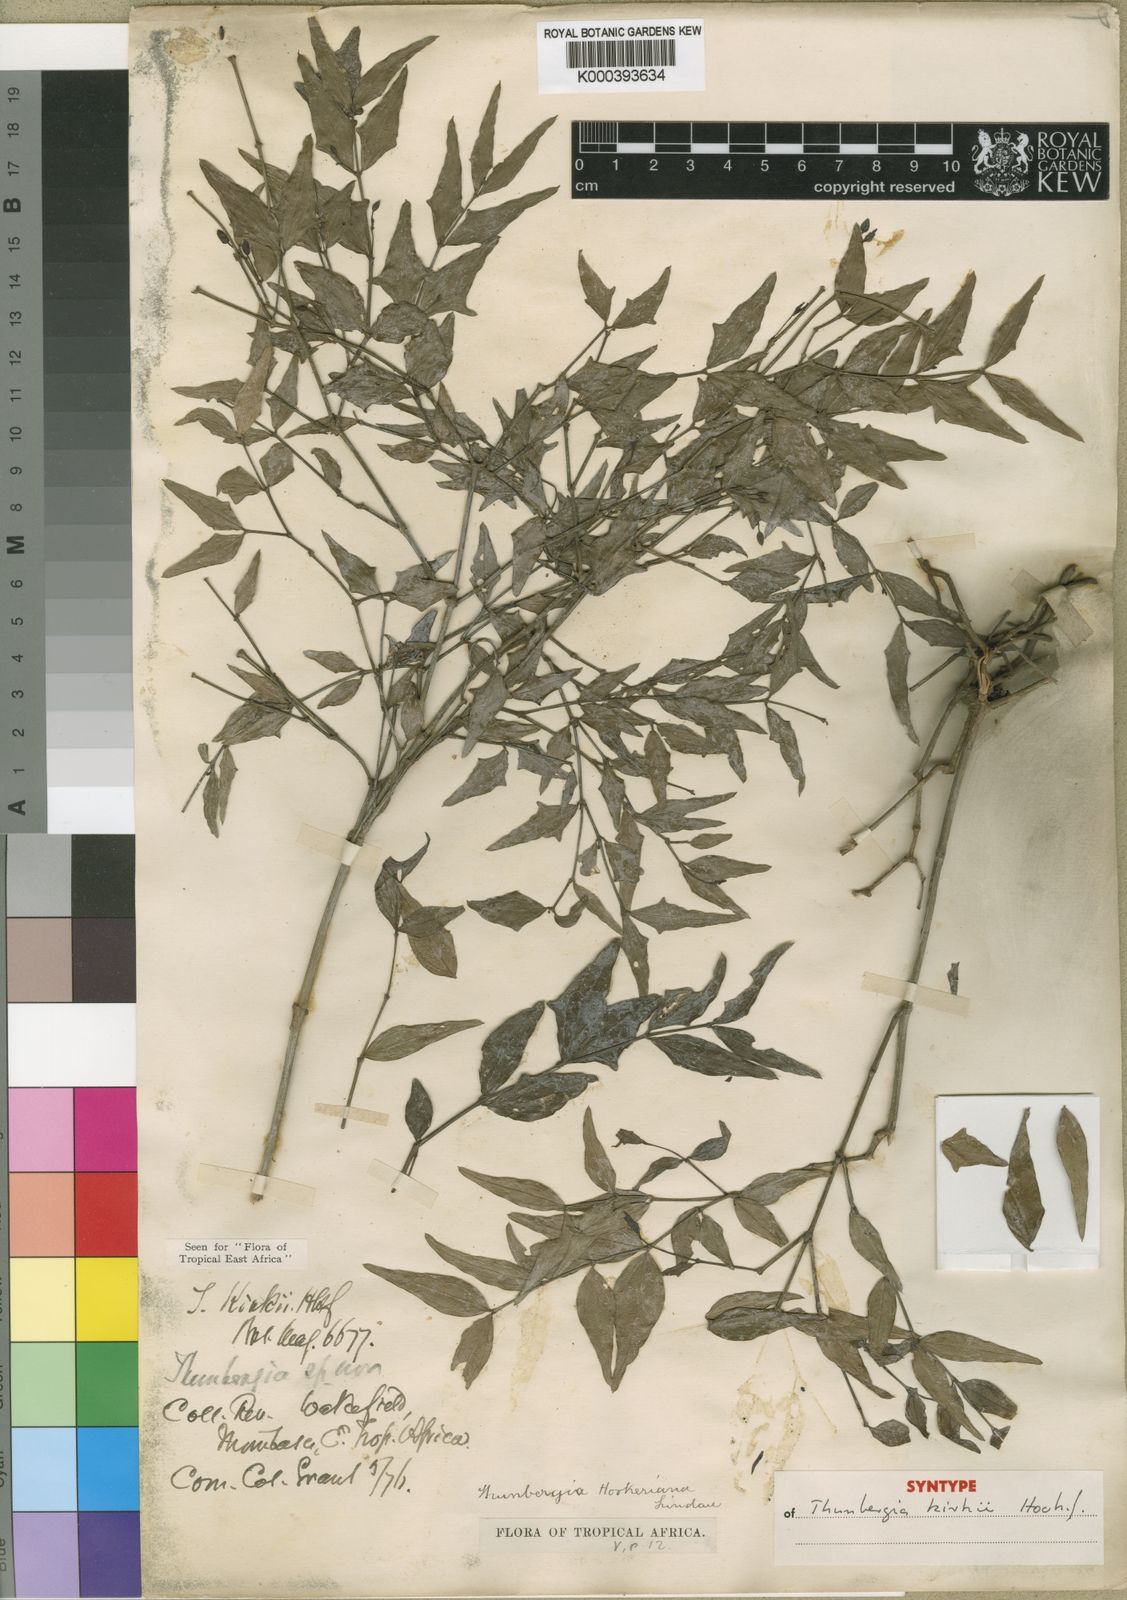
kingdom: Plantae
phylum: Tracheophyta
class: Magnoliopsida
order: Lamiales
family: Acanthaceae
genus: Thunbergia
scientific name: Thunbergia kirkii
